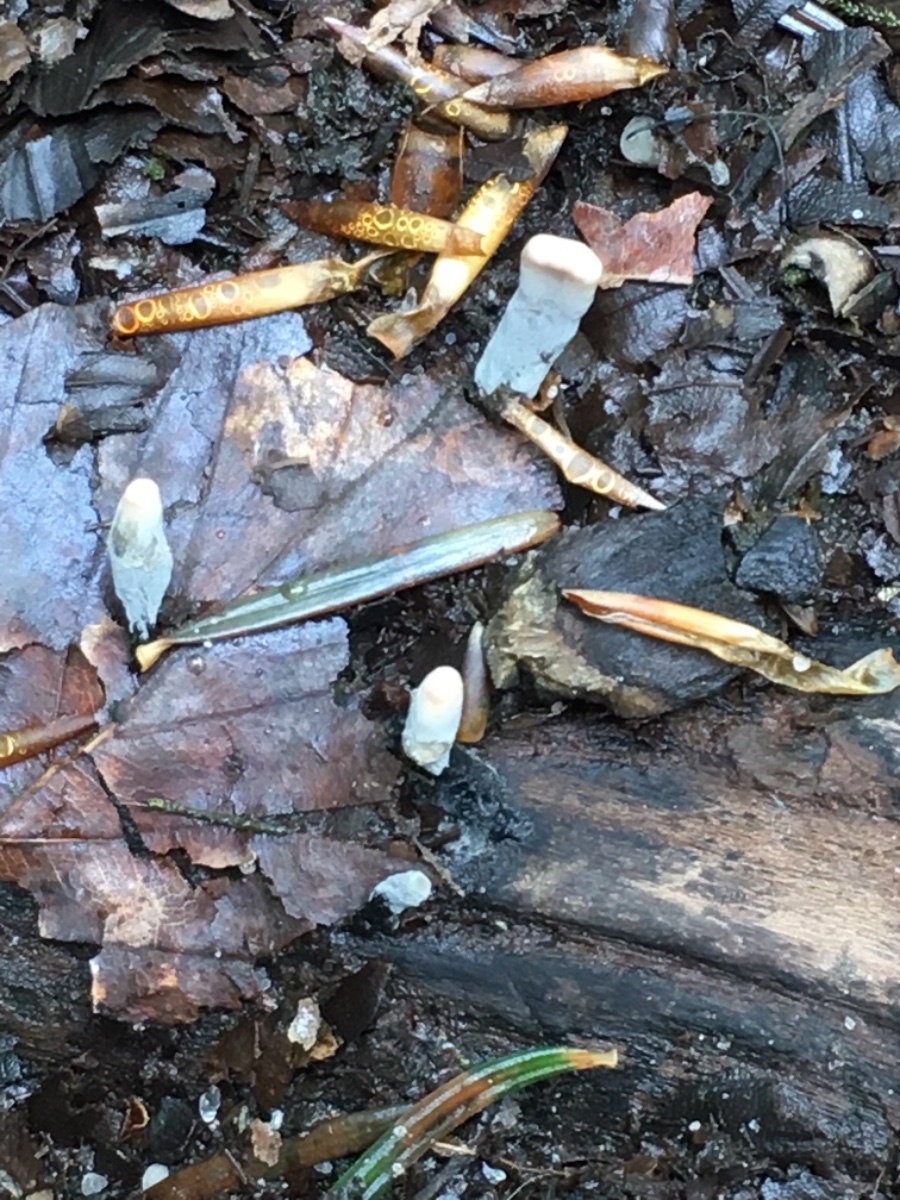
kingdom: Fungi
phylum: Ascomycota
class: Sordariomycetes
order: Xylariales
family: Xylariaceae
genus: Xylaria
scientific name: Xylaria longipes
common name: slank stødsvamp
